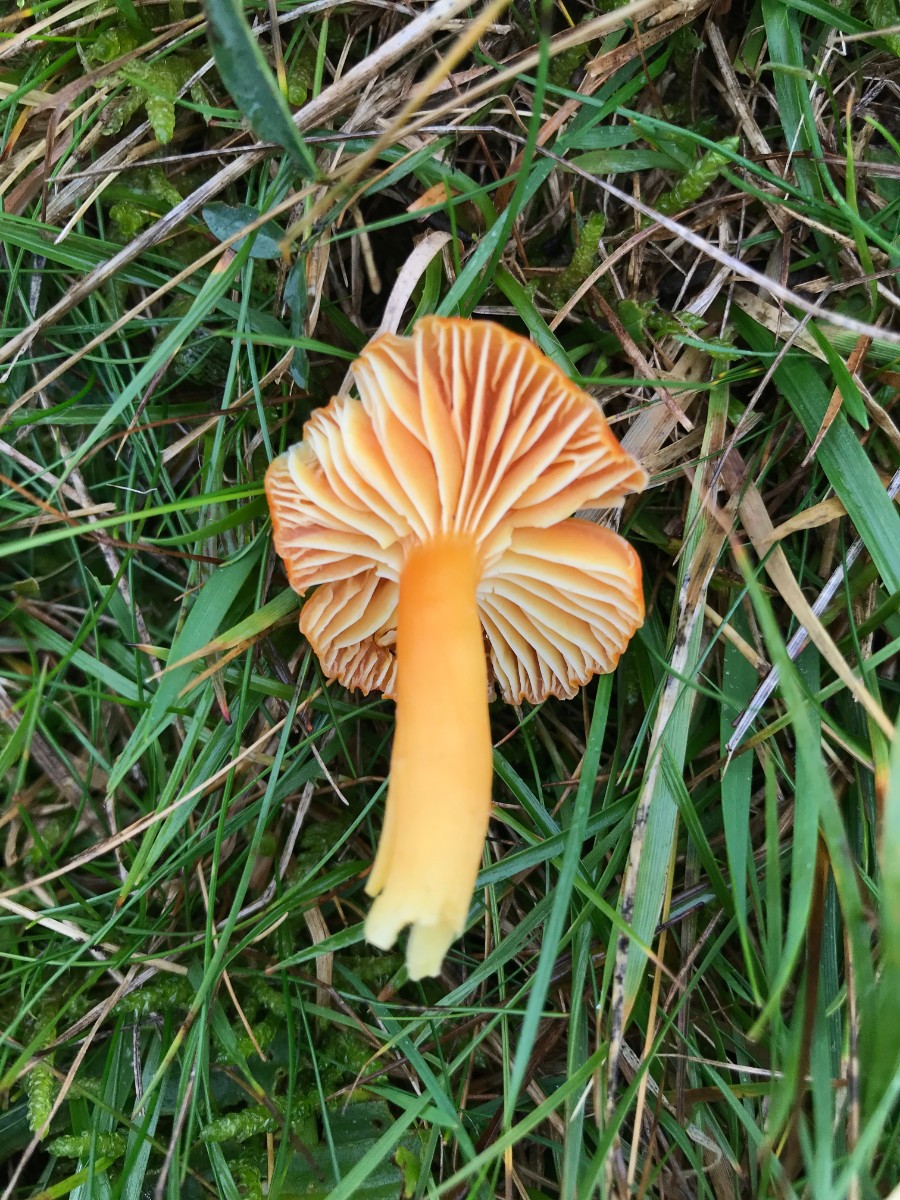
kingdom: Fungi
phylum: Basidiomycota
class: Agaricomycetes
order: Agaricales
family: Hygrophoraceae
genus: Hygrocybe
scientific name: Hygrocybe miniata
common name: mønje-vokshat
